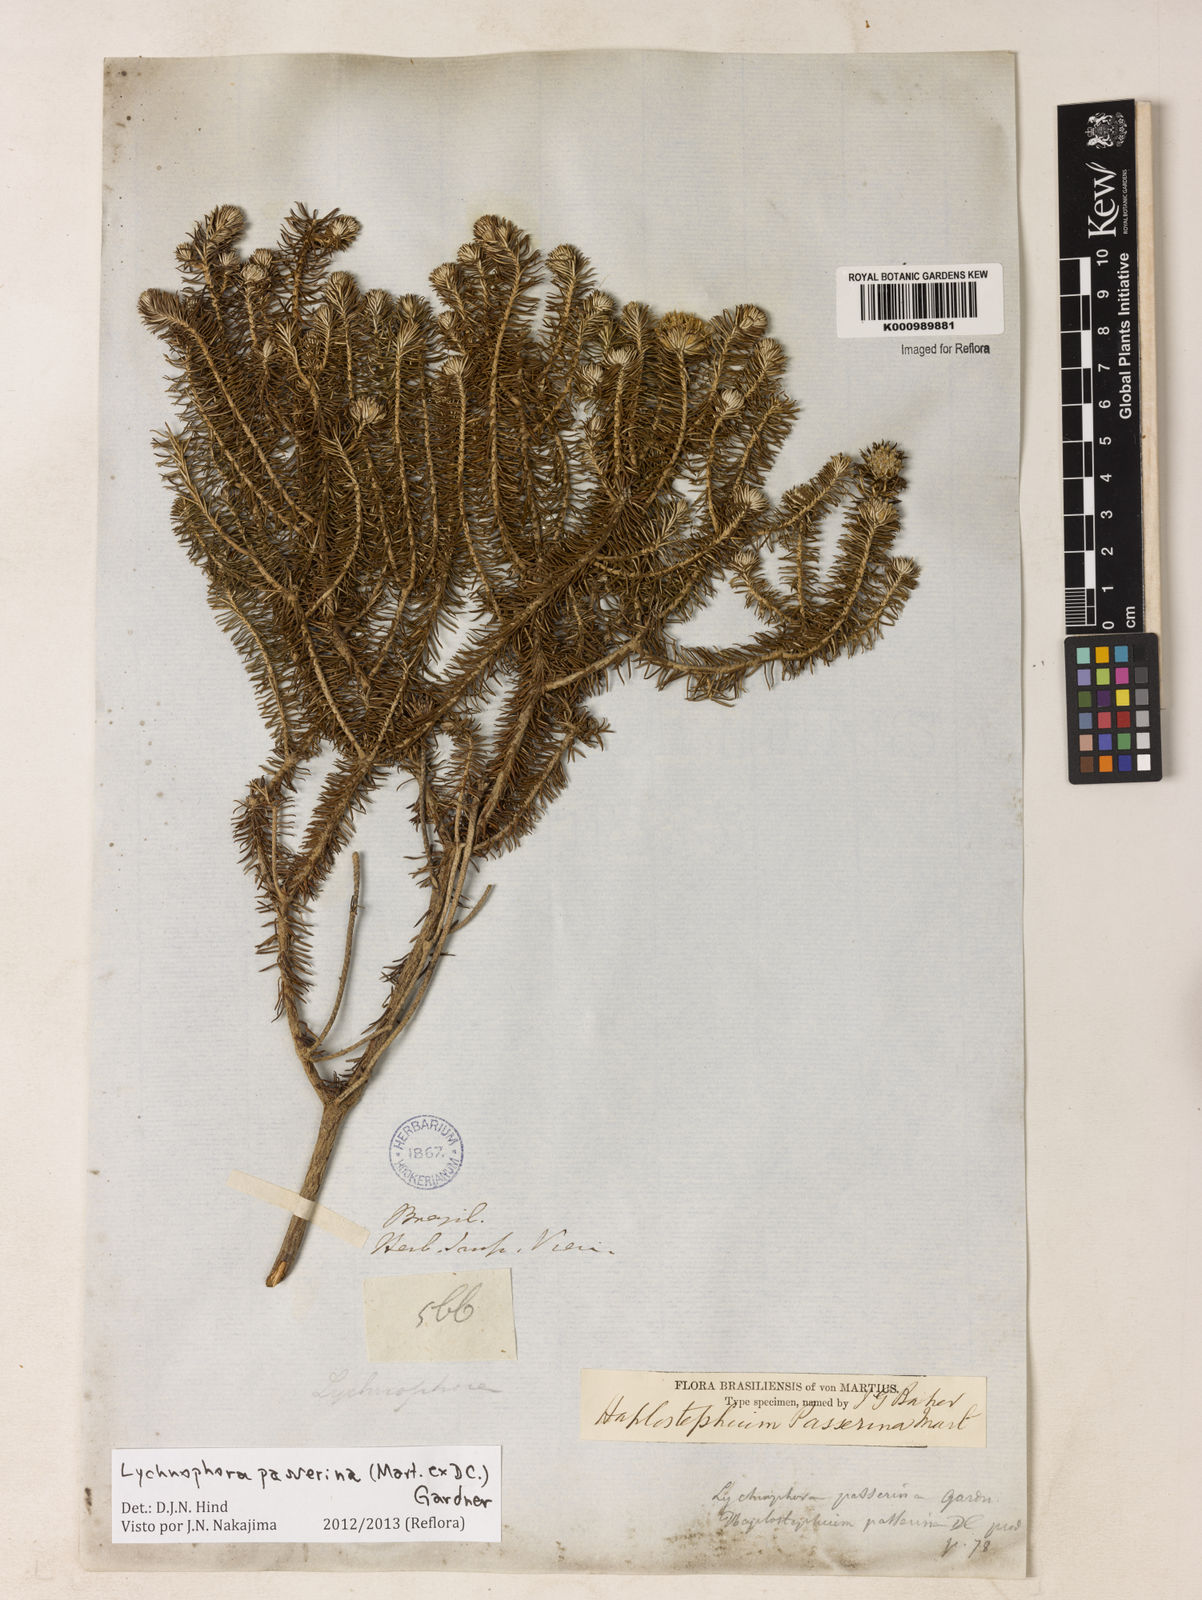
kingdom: Plantae
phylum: Tracheophyta
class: Magnoliopsida
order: Asterales
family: Asteraceae
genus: Lychnophora
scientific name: Lychnophora passerina
